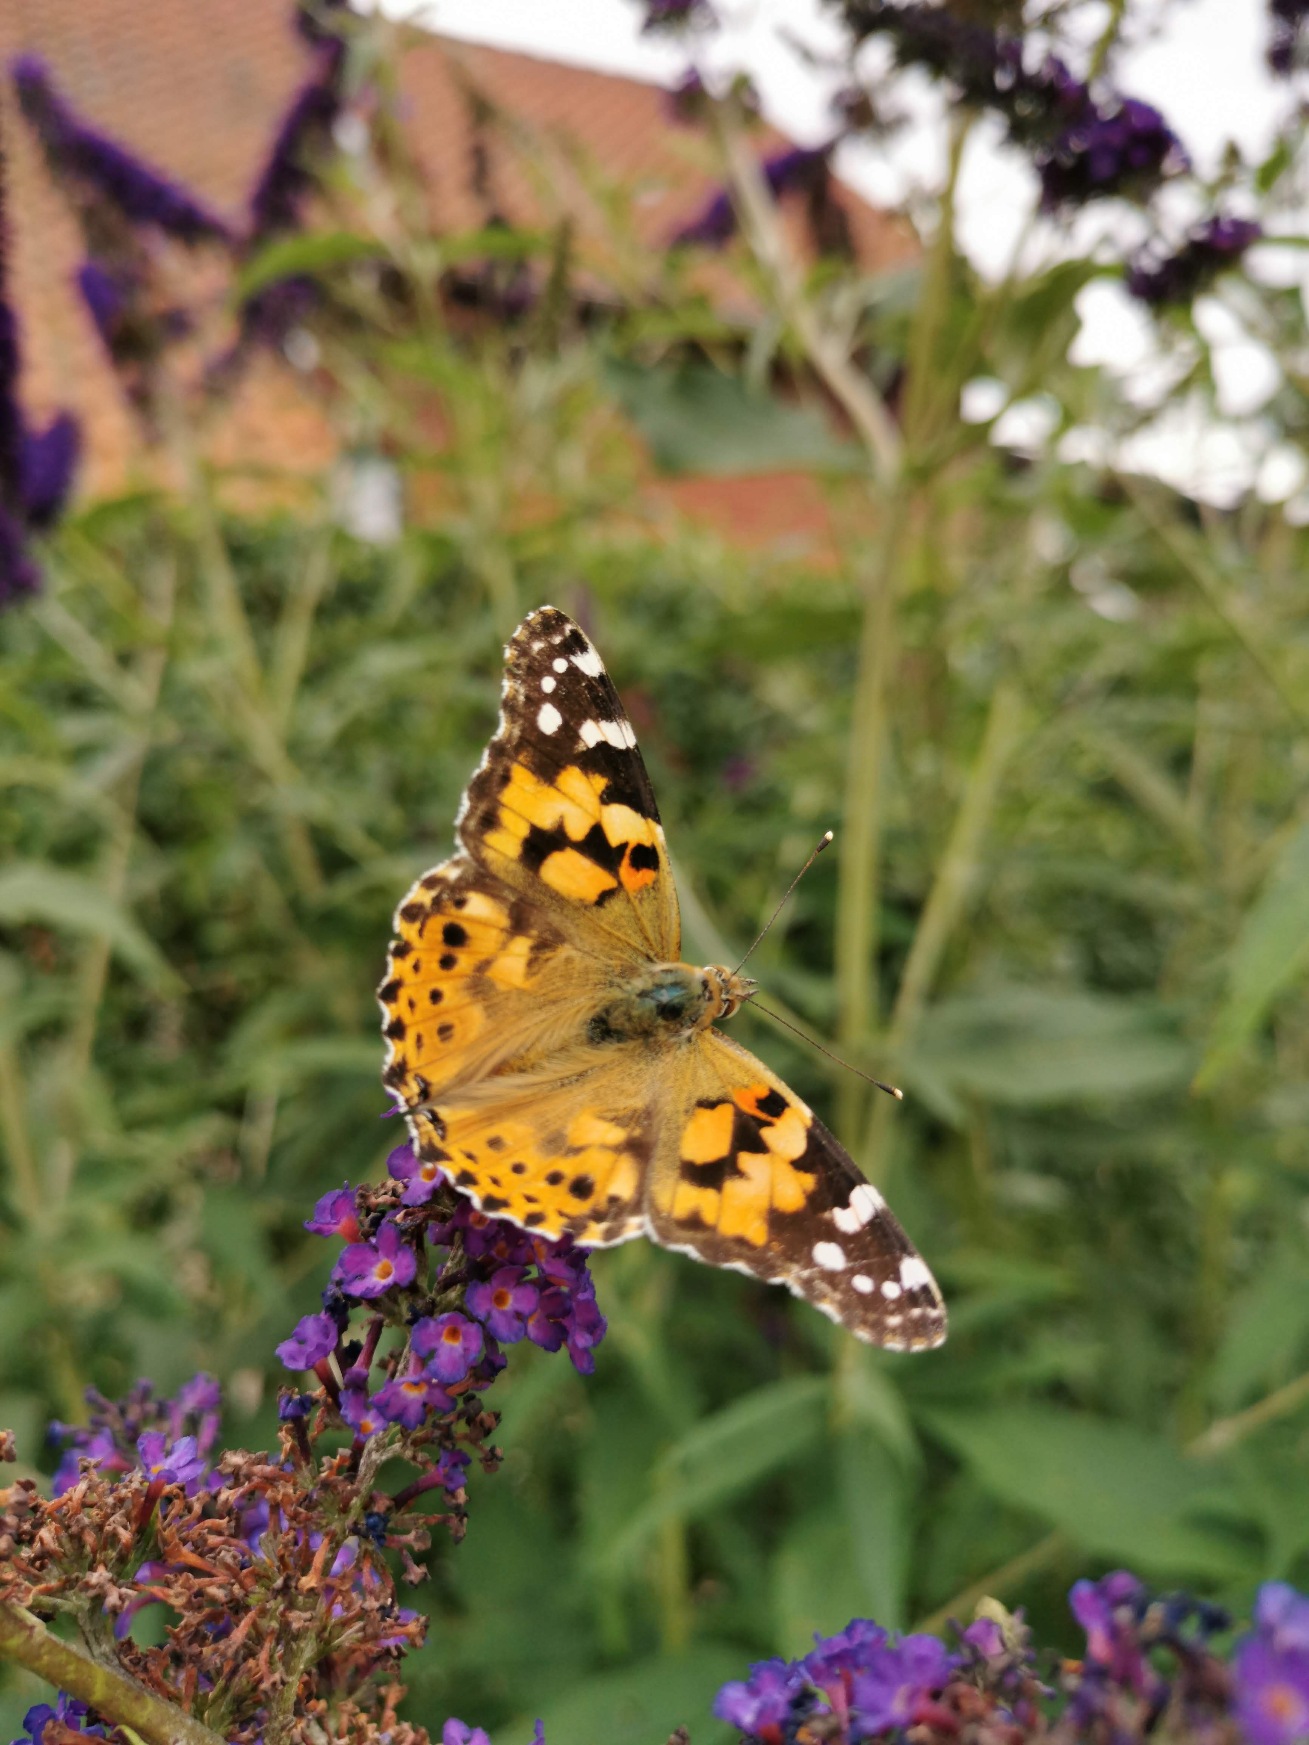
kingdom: Animalia
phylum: Arthropoda
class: Insecta
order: Lepidoptera
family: Nymphalidae
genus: Vanessa
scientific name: Vanessa cardui
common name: Tidselsommerfugl
